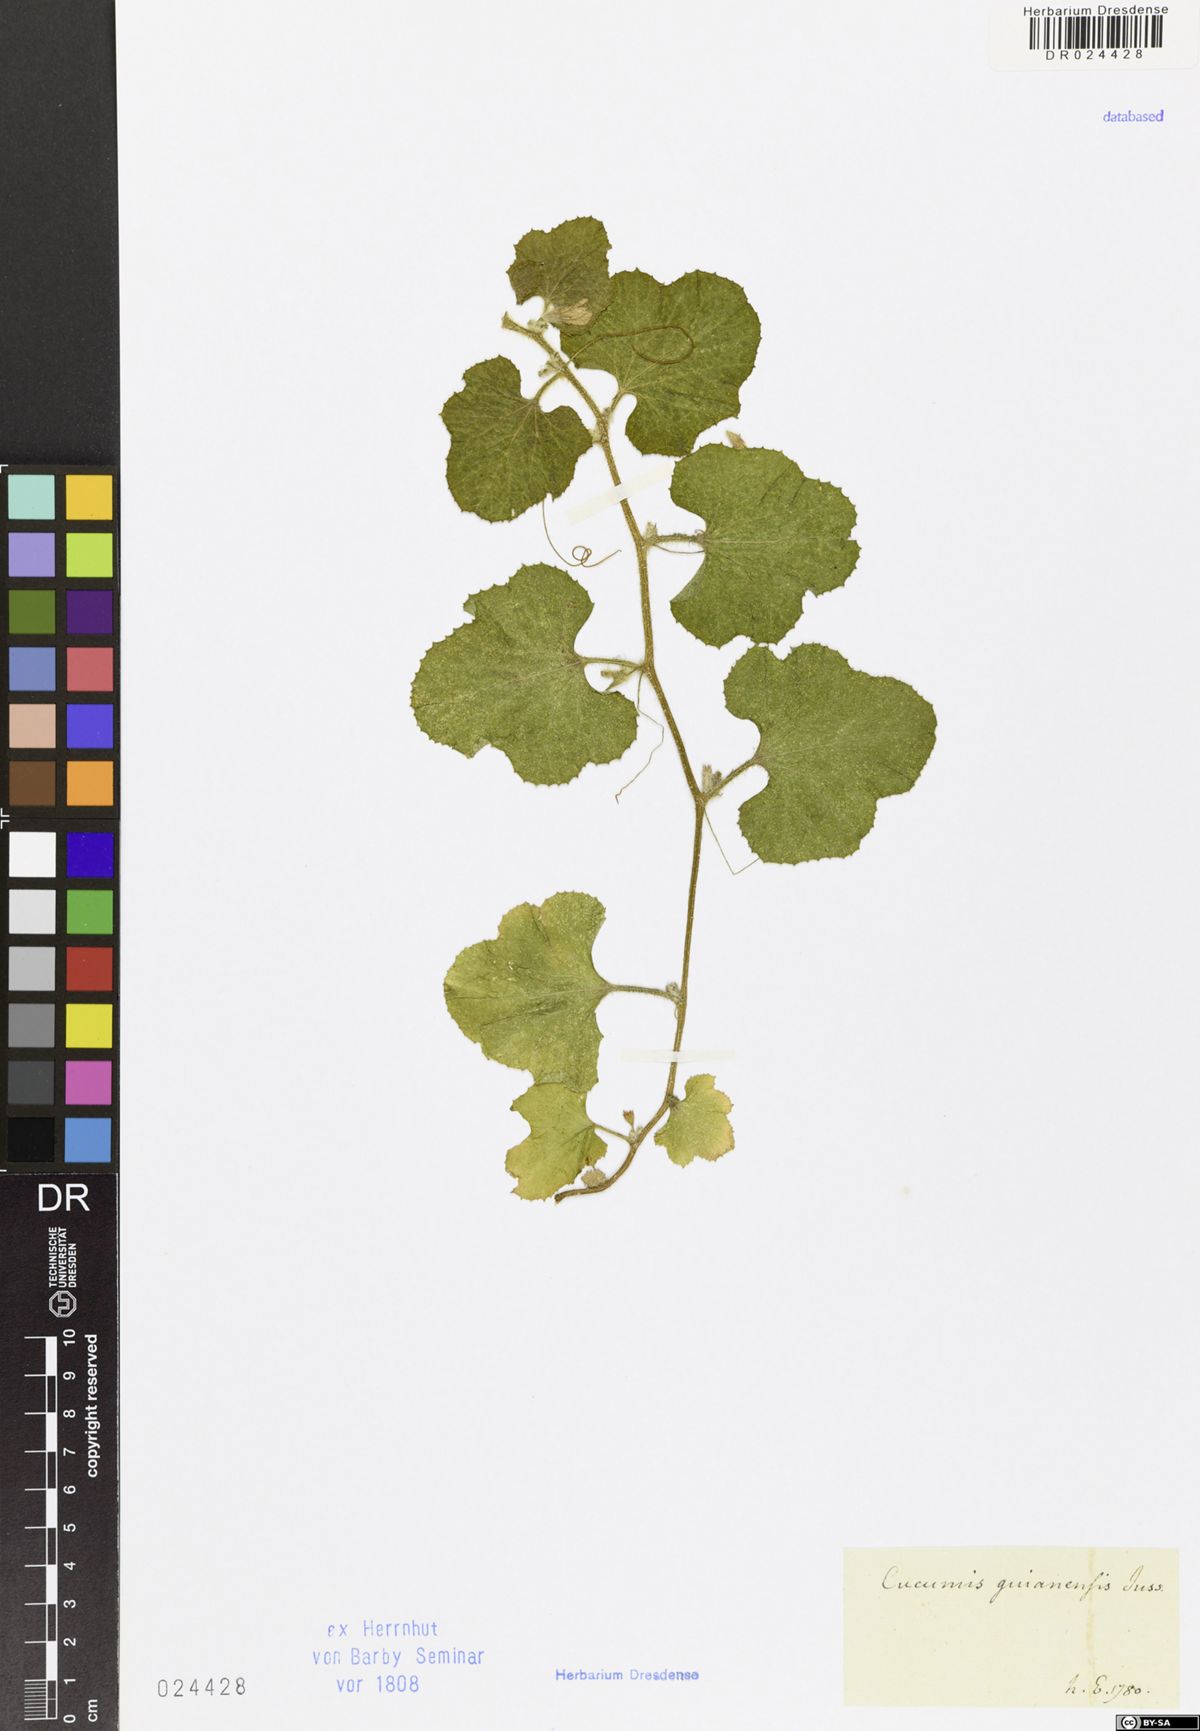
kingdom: Plantae
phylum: Tracheophyta
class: Magnoliopsida
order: Cucurbitales
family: Cucurbitaceae
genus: Cucumis
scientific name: Cucumis
